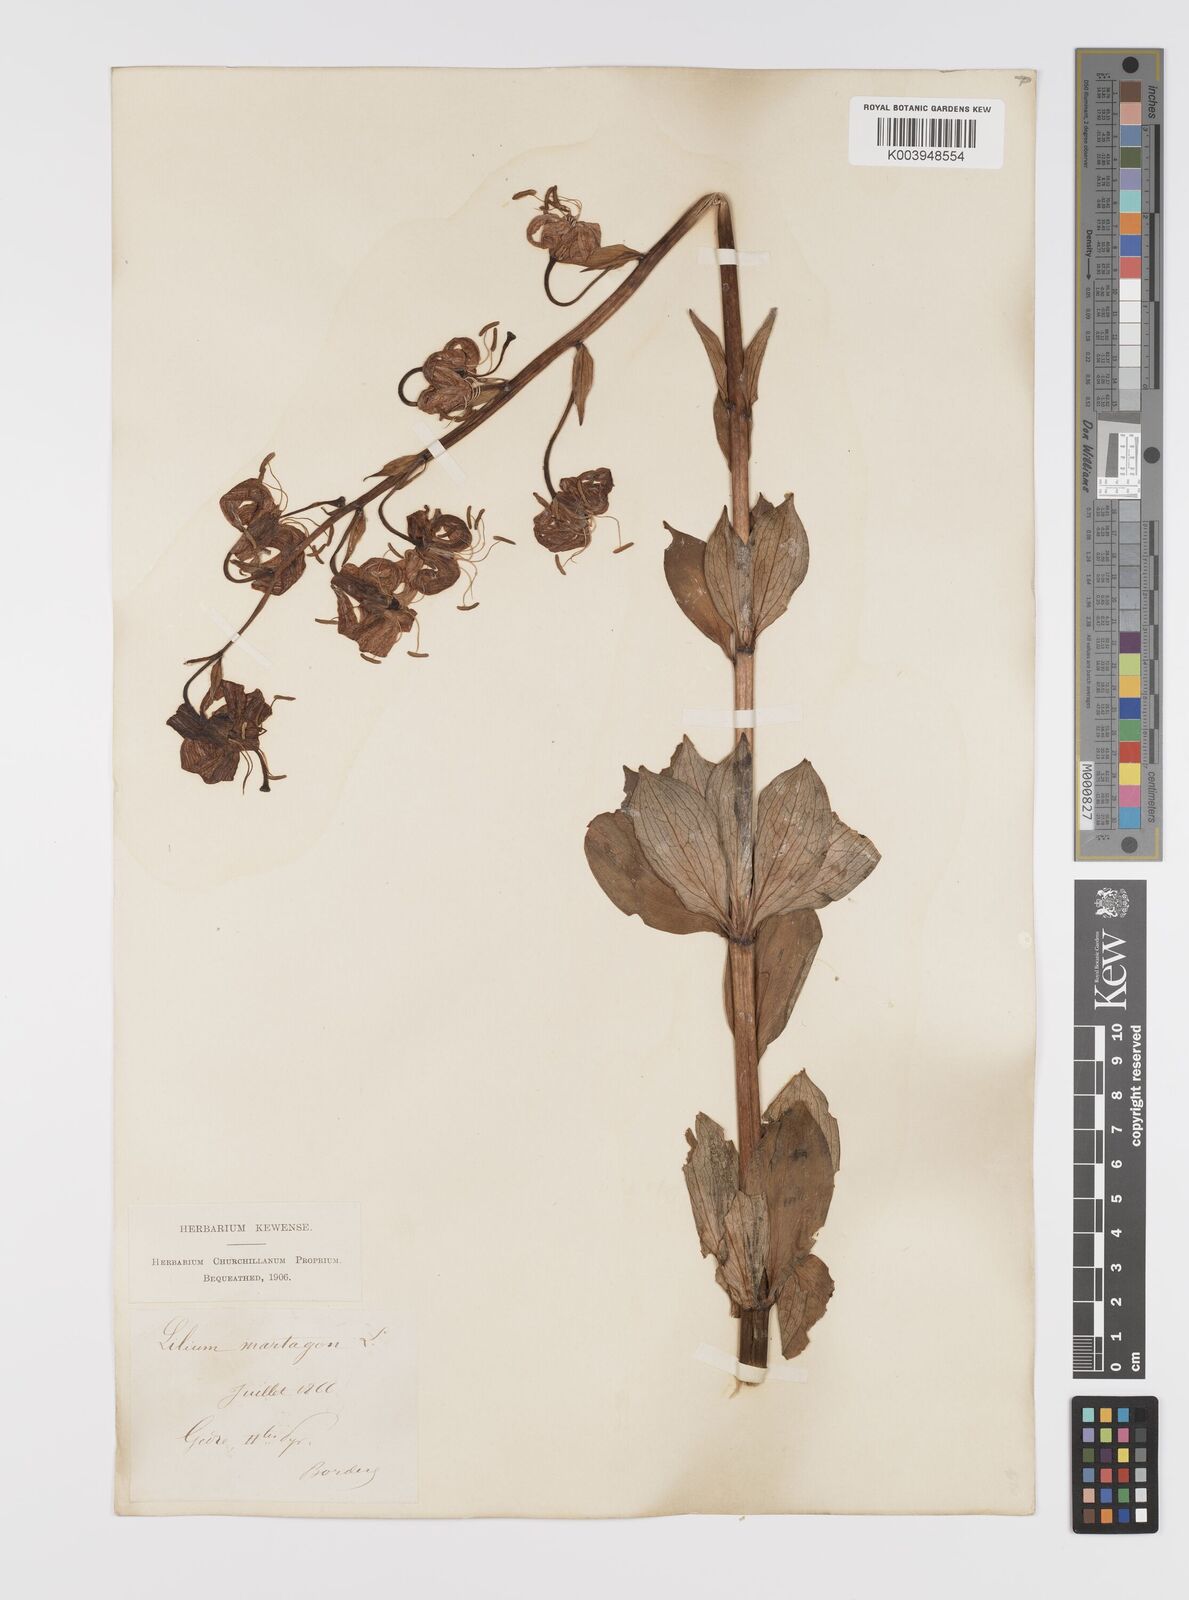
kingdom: Plantae
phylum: Tracheophyta
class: Liliopsida
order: Liliales
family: Liliaceae
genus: Lilium
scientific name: Lilium martagon
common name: Martagon lily
